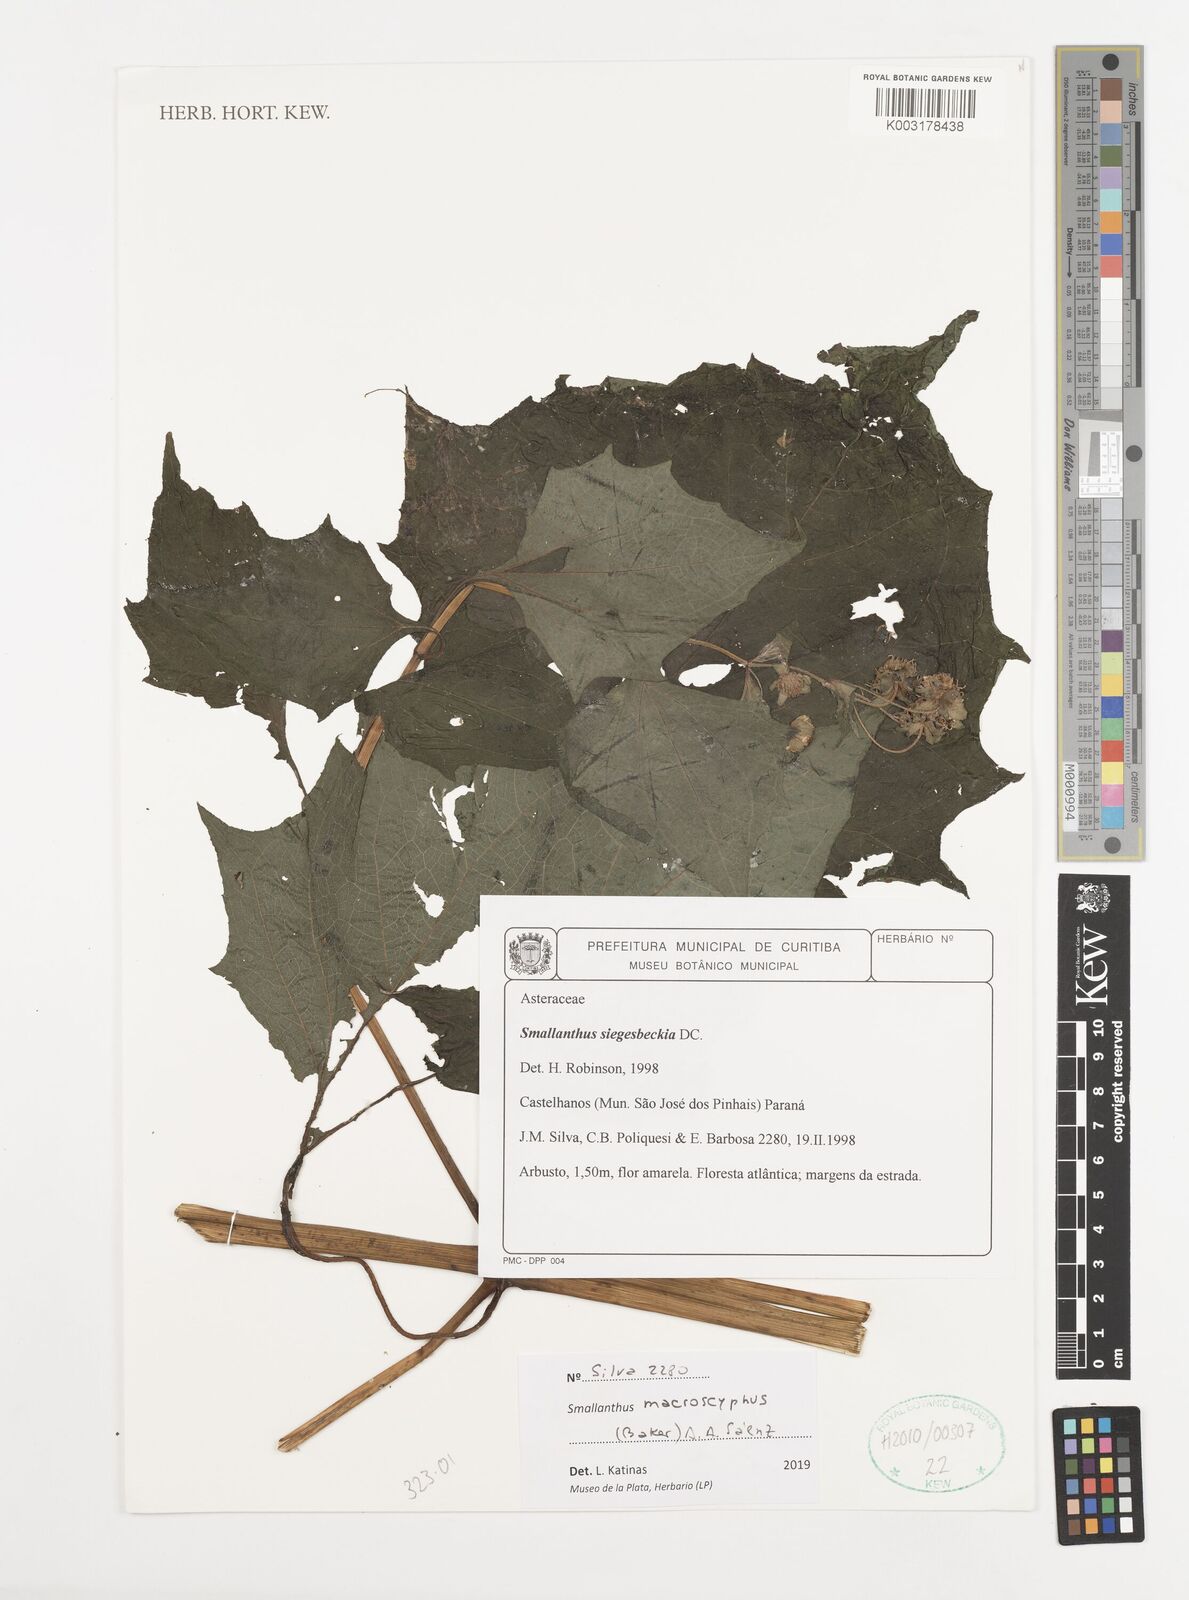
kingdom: Plantae
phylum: Tracheophyta
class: Magnoliopsida
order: Asterales
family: Asteraceae
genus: Smallanthus
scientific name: Smallanthus connatus
